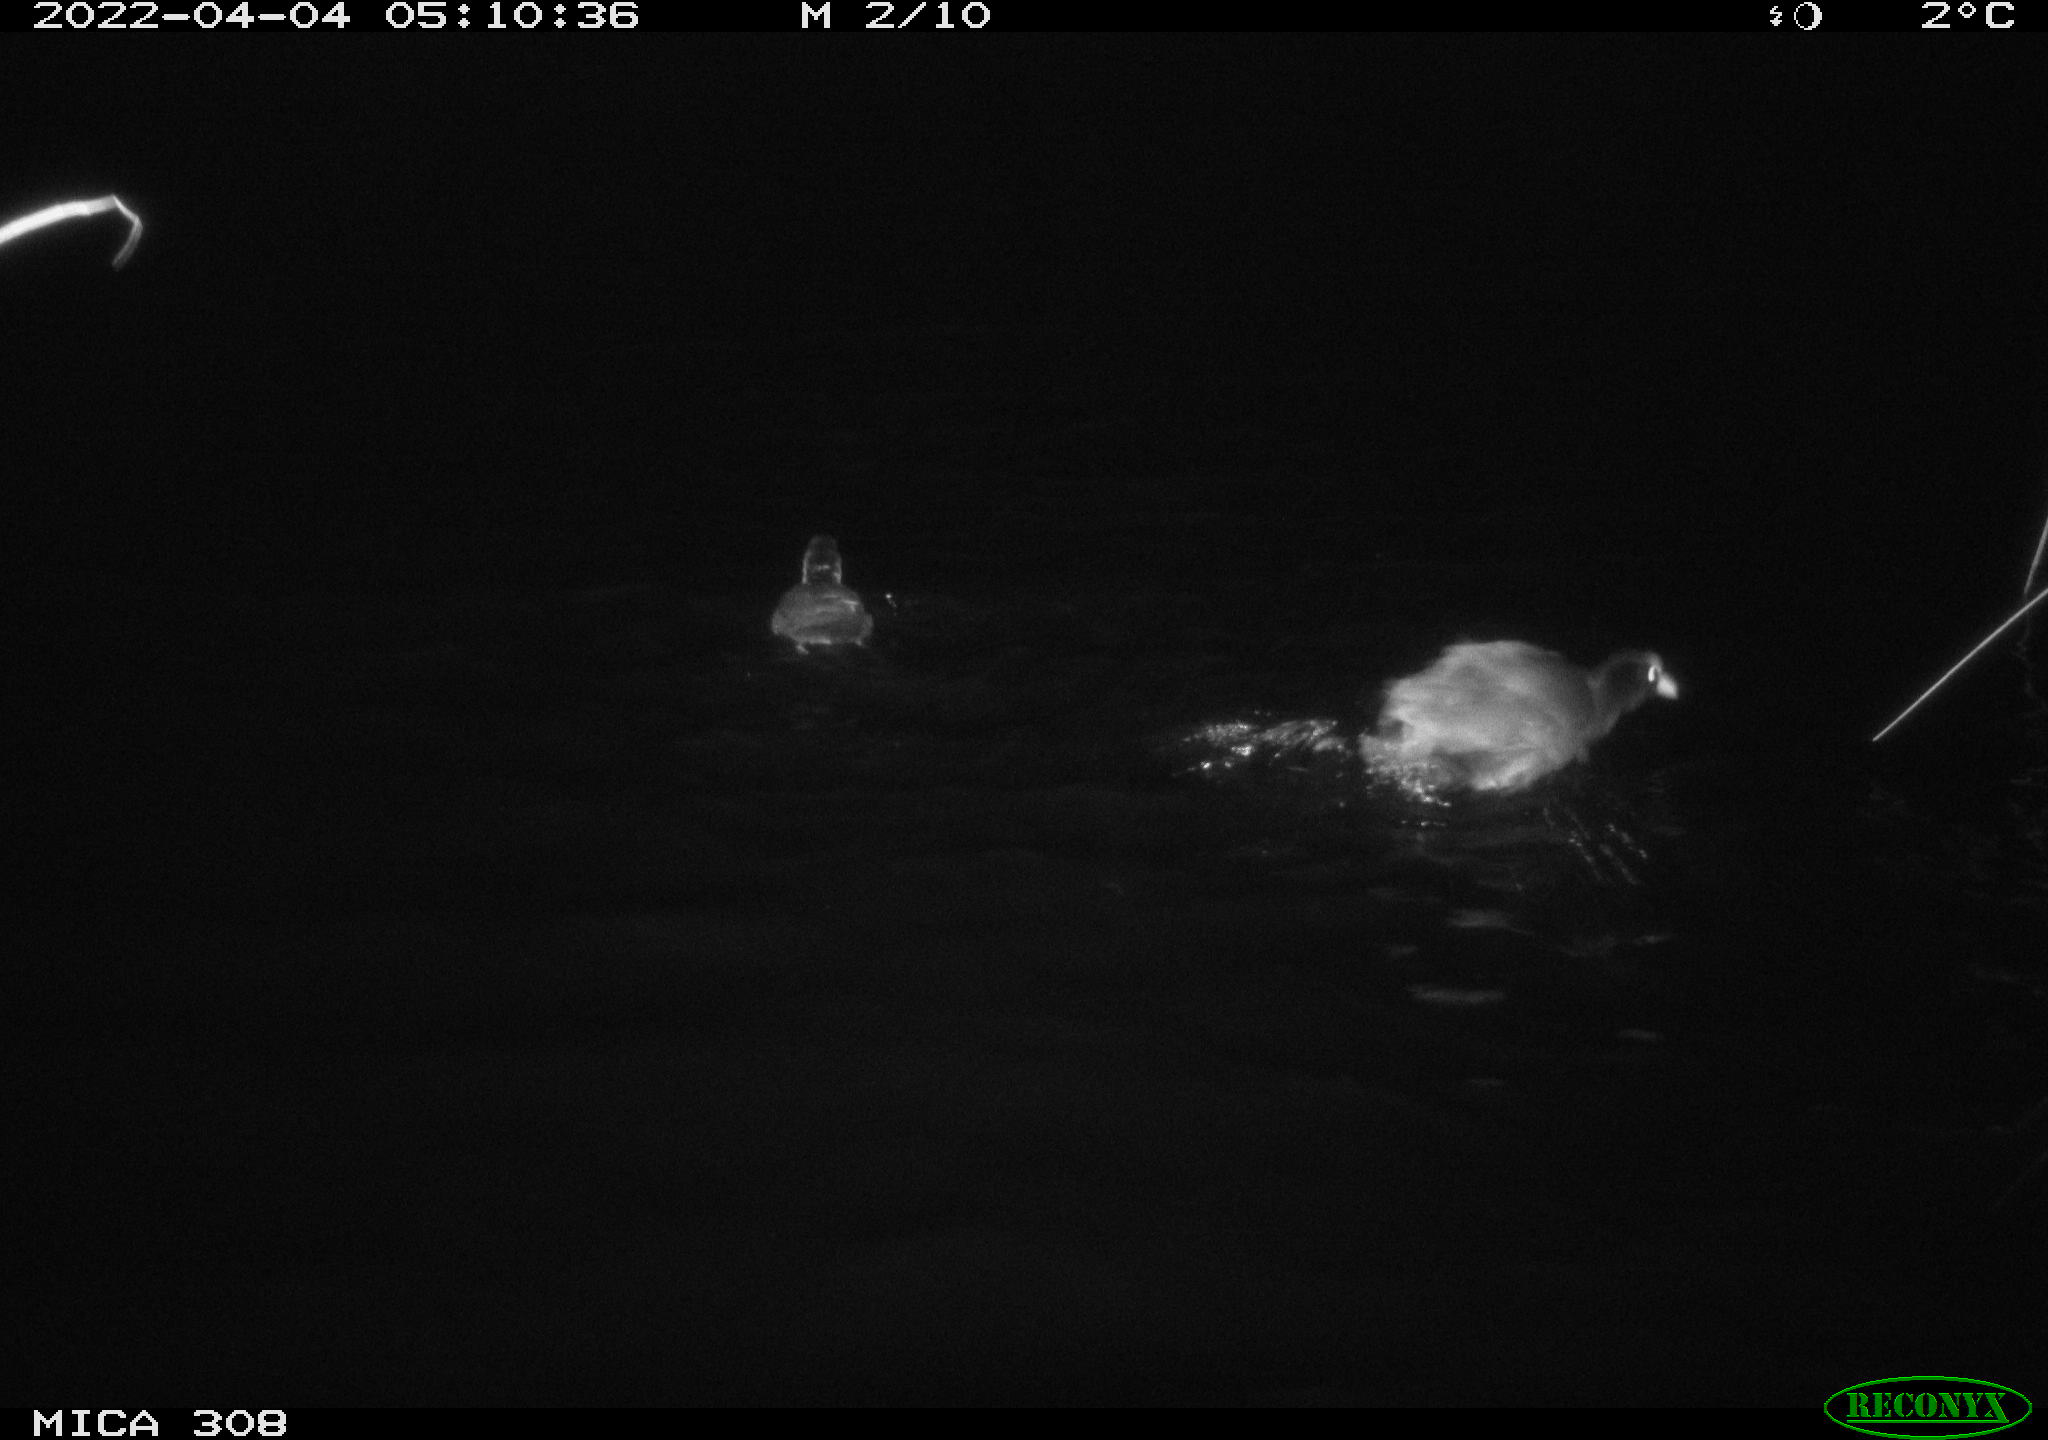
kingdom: Animalia
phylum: Chordata
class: Aves
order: Gruiformes
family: Rallidae
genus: Fulica
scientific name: Fulica atra
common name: Eurasian coot
